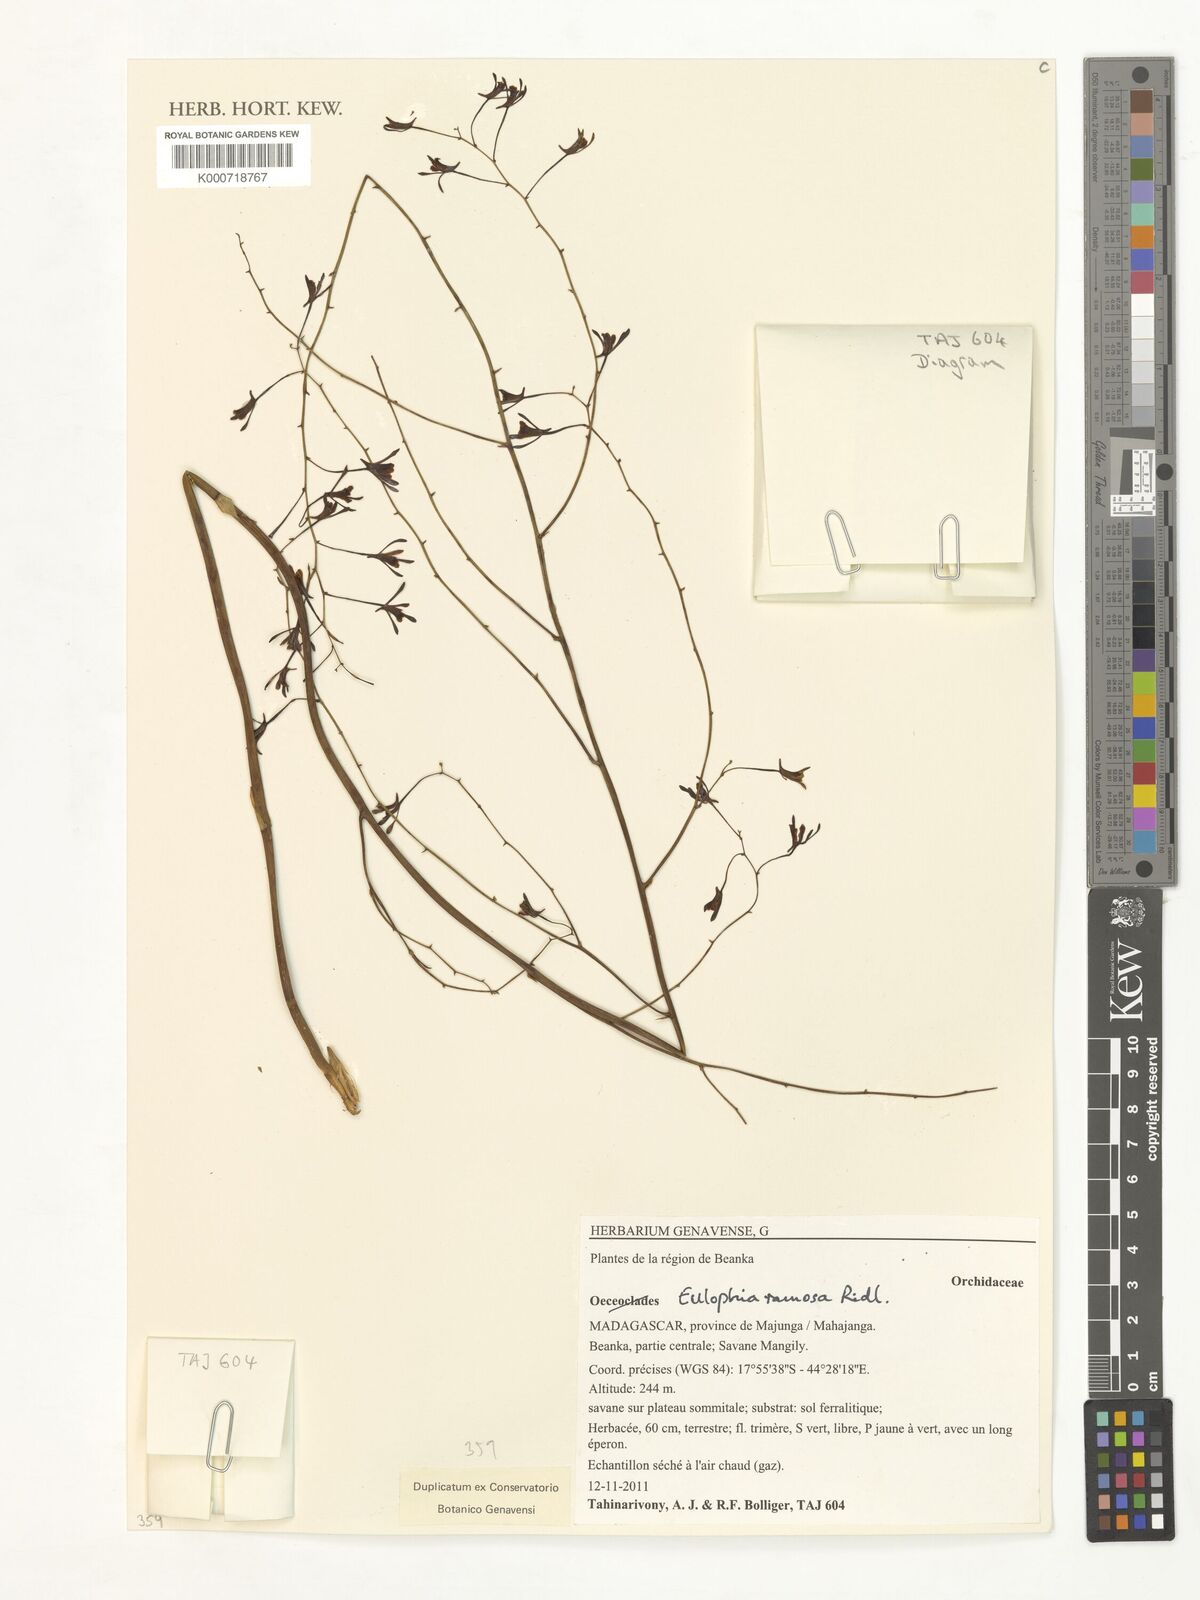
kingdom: Plantae
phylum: Tracheophyta
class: Liliopsida
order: Asparagales
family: Orchidaceae
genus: Eulophia
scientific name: Eulophia ramosa
